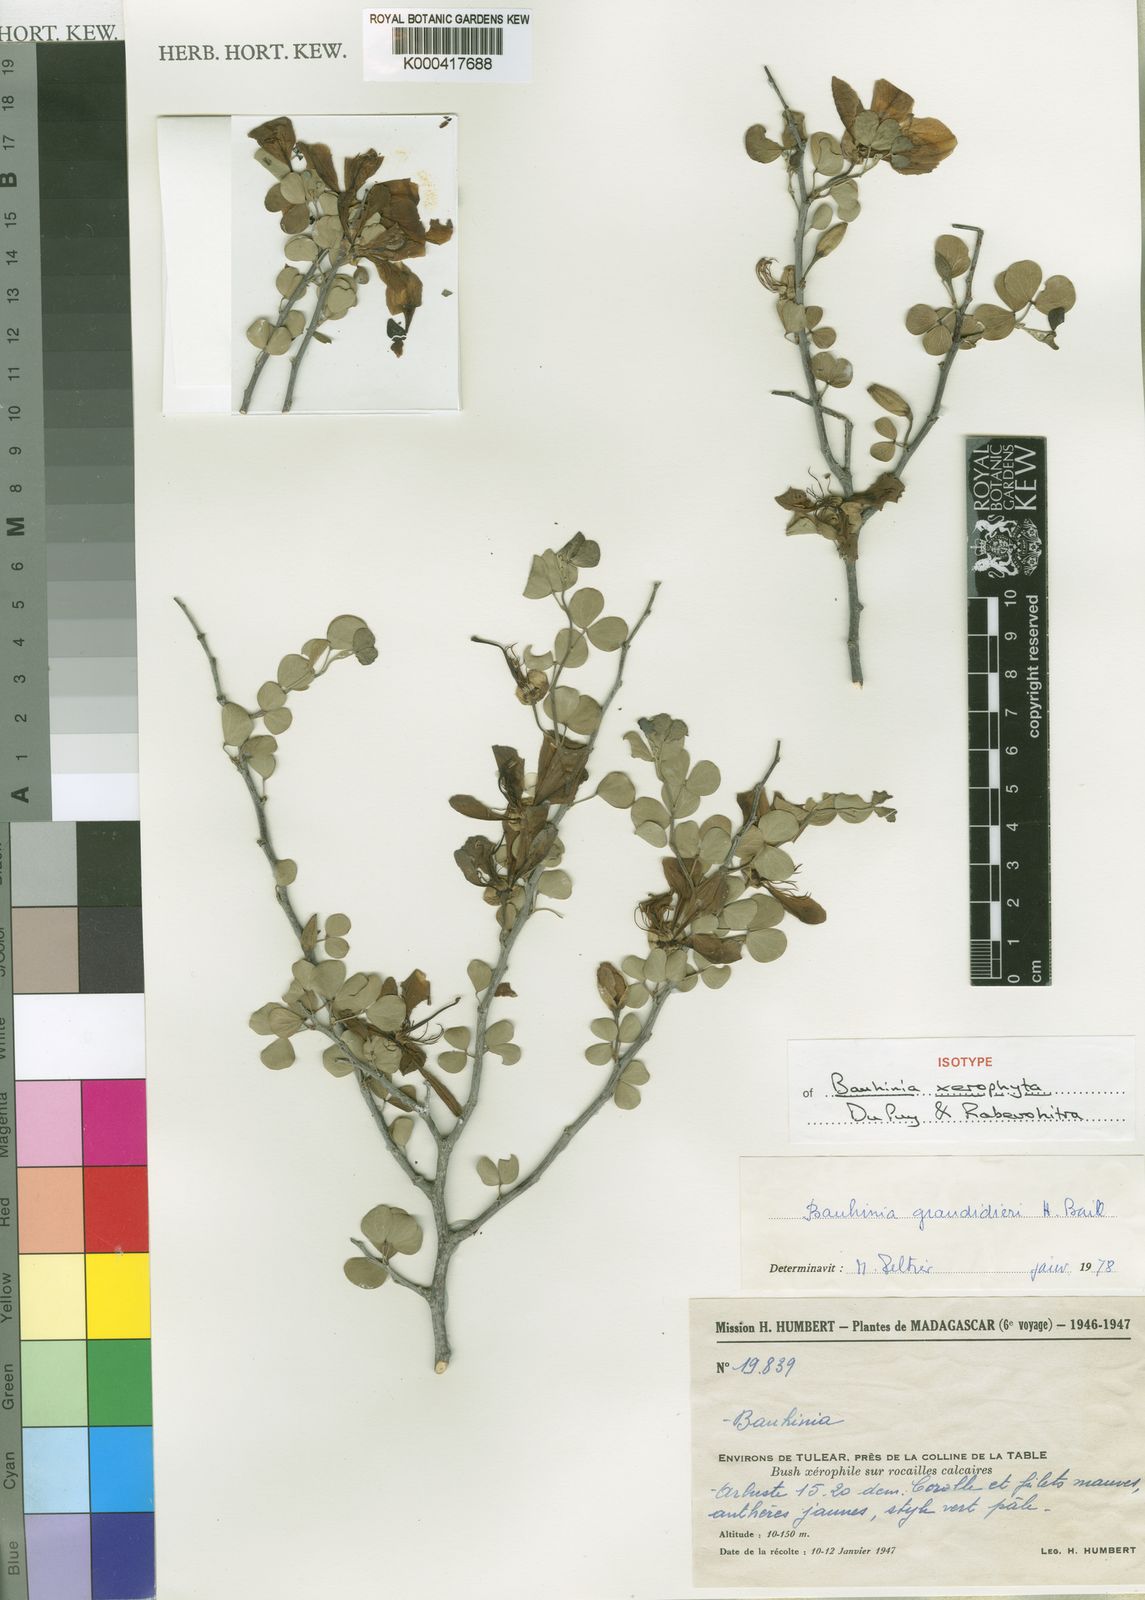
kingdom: Plantae
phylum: Tracheophyta
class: Magnoliopsida
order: Fabales
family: Fabaceae
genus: Bauhinia
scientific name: Bauhinia xerophyta
